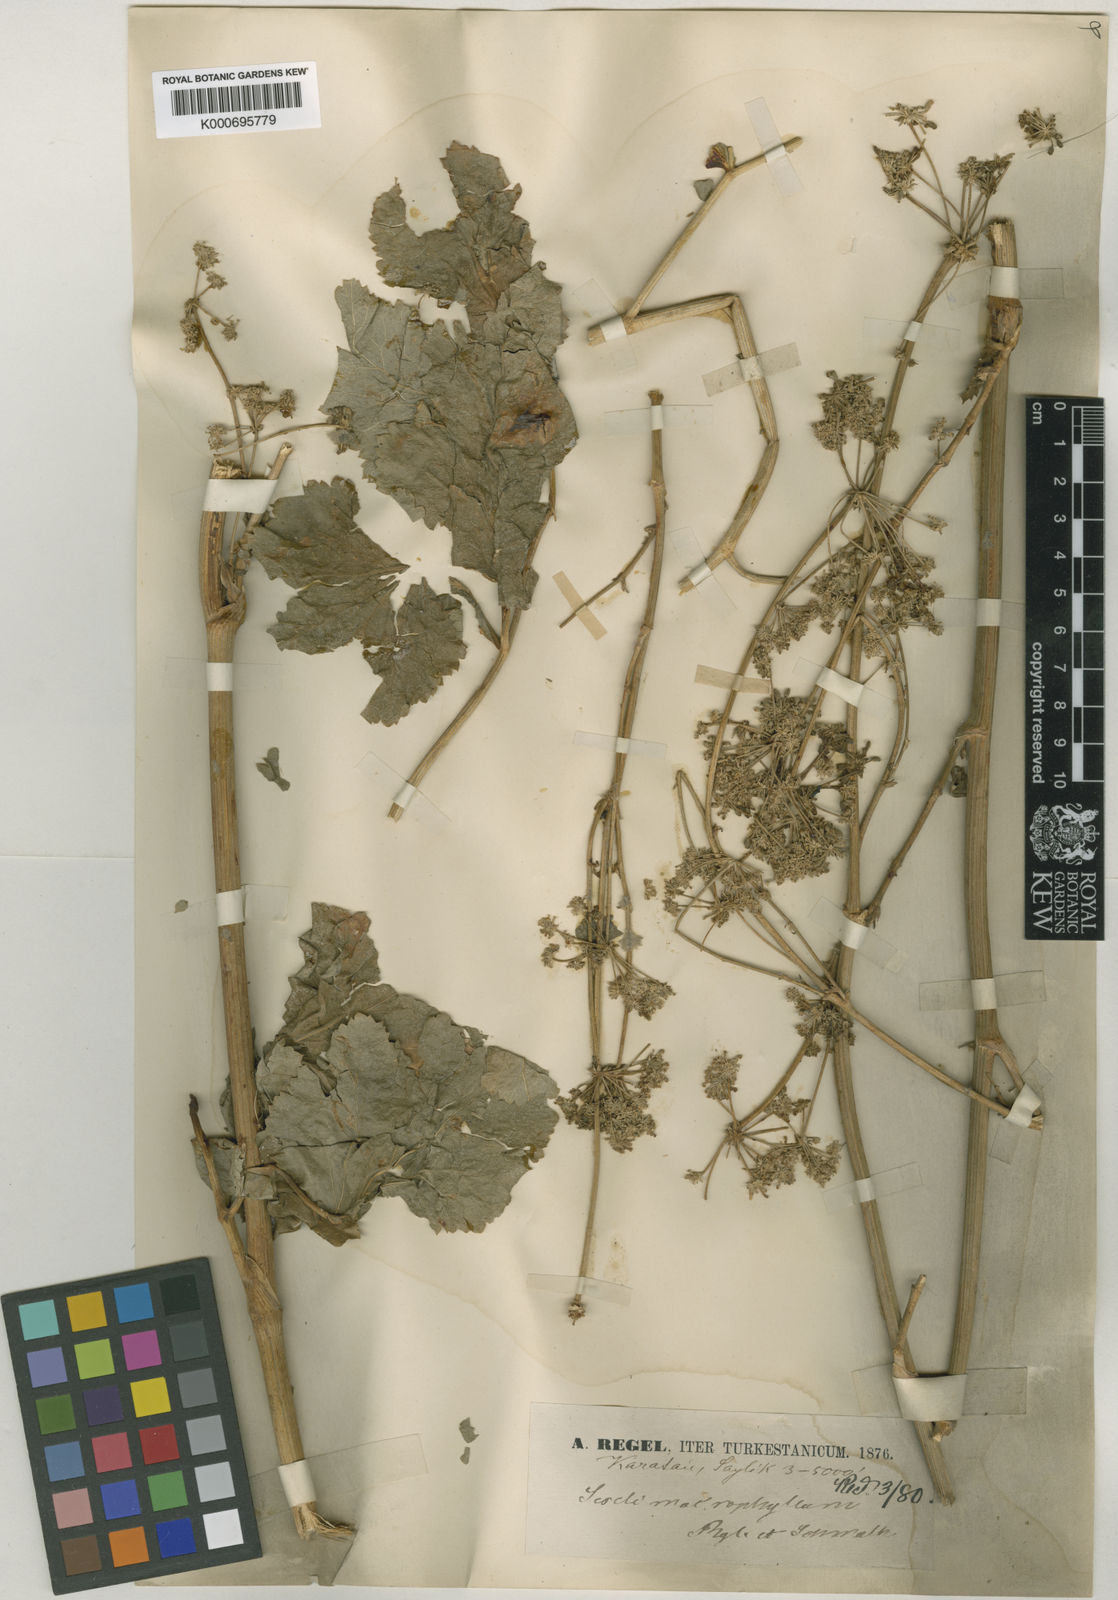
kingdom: Plantae
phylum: Tracheophyta
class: Magnoliopsida
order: Apiales
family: Apiaceae
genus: Mediasia
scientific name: Mediasia macrophylla
